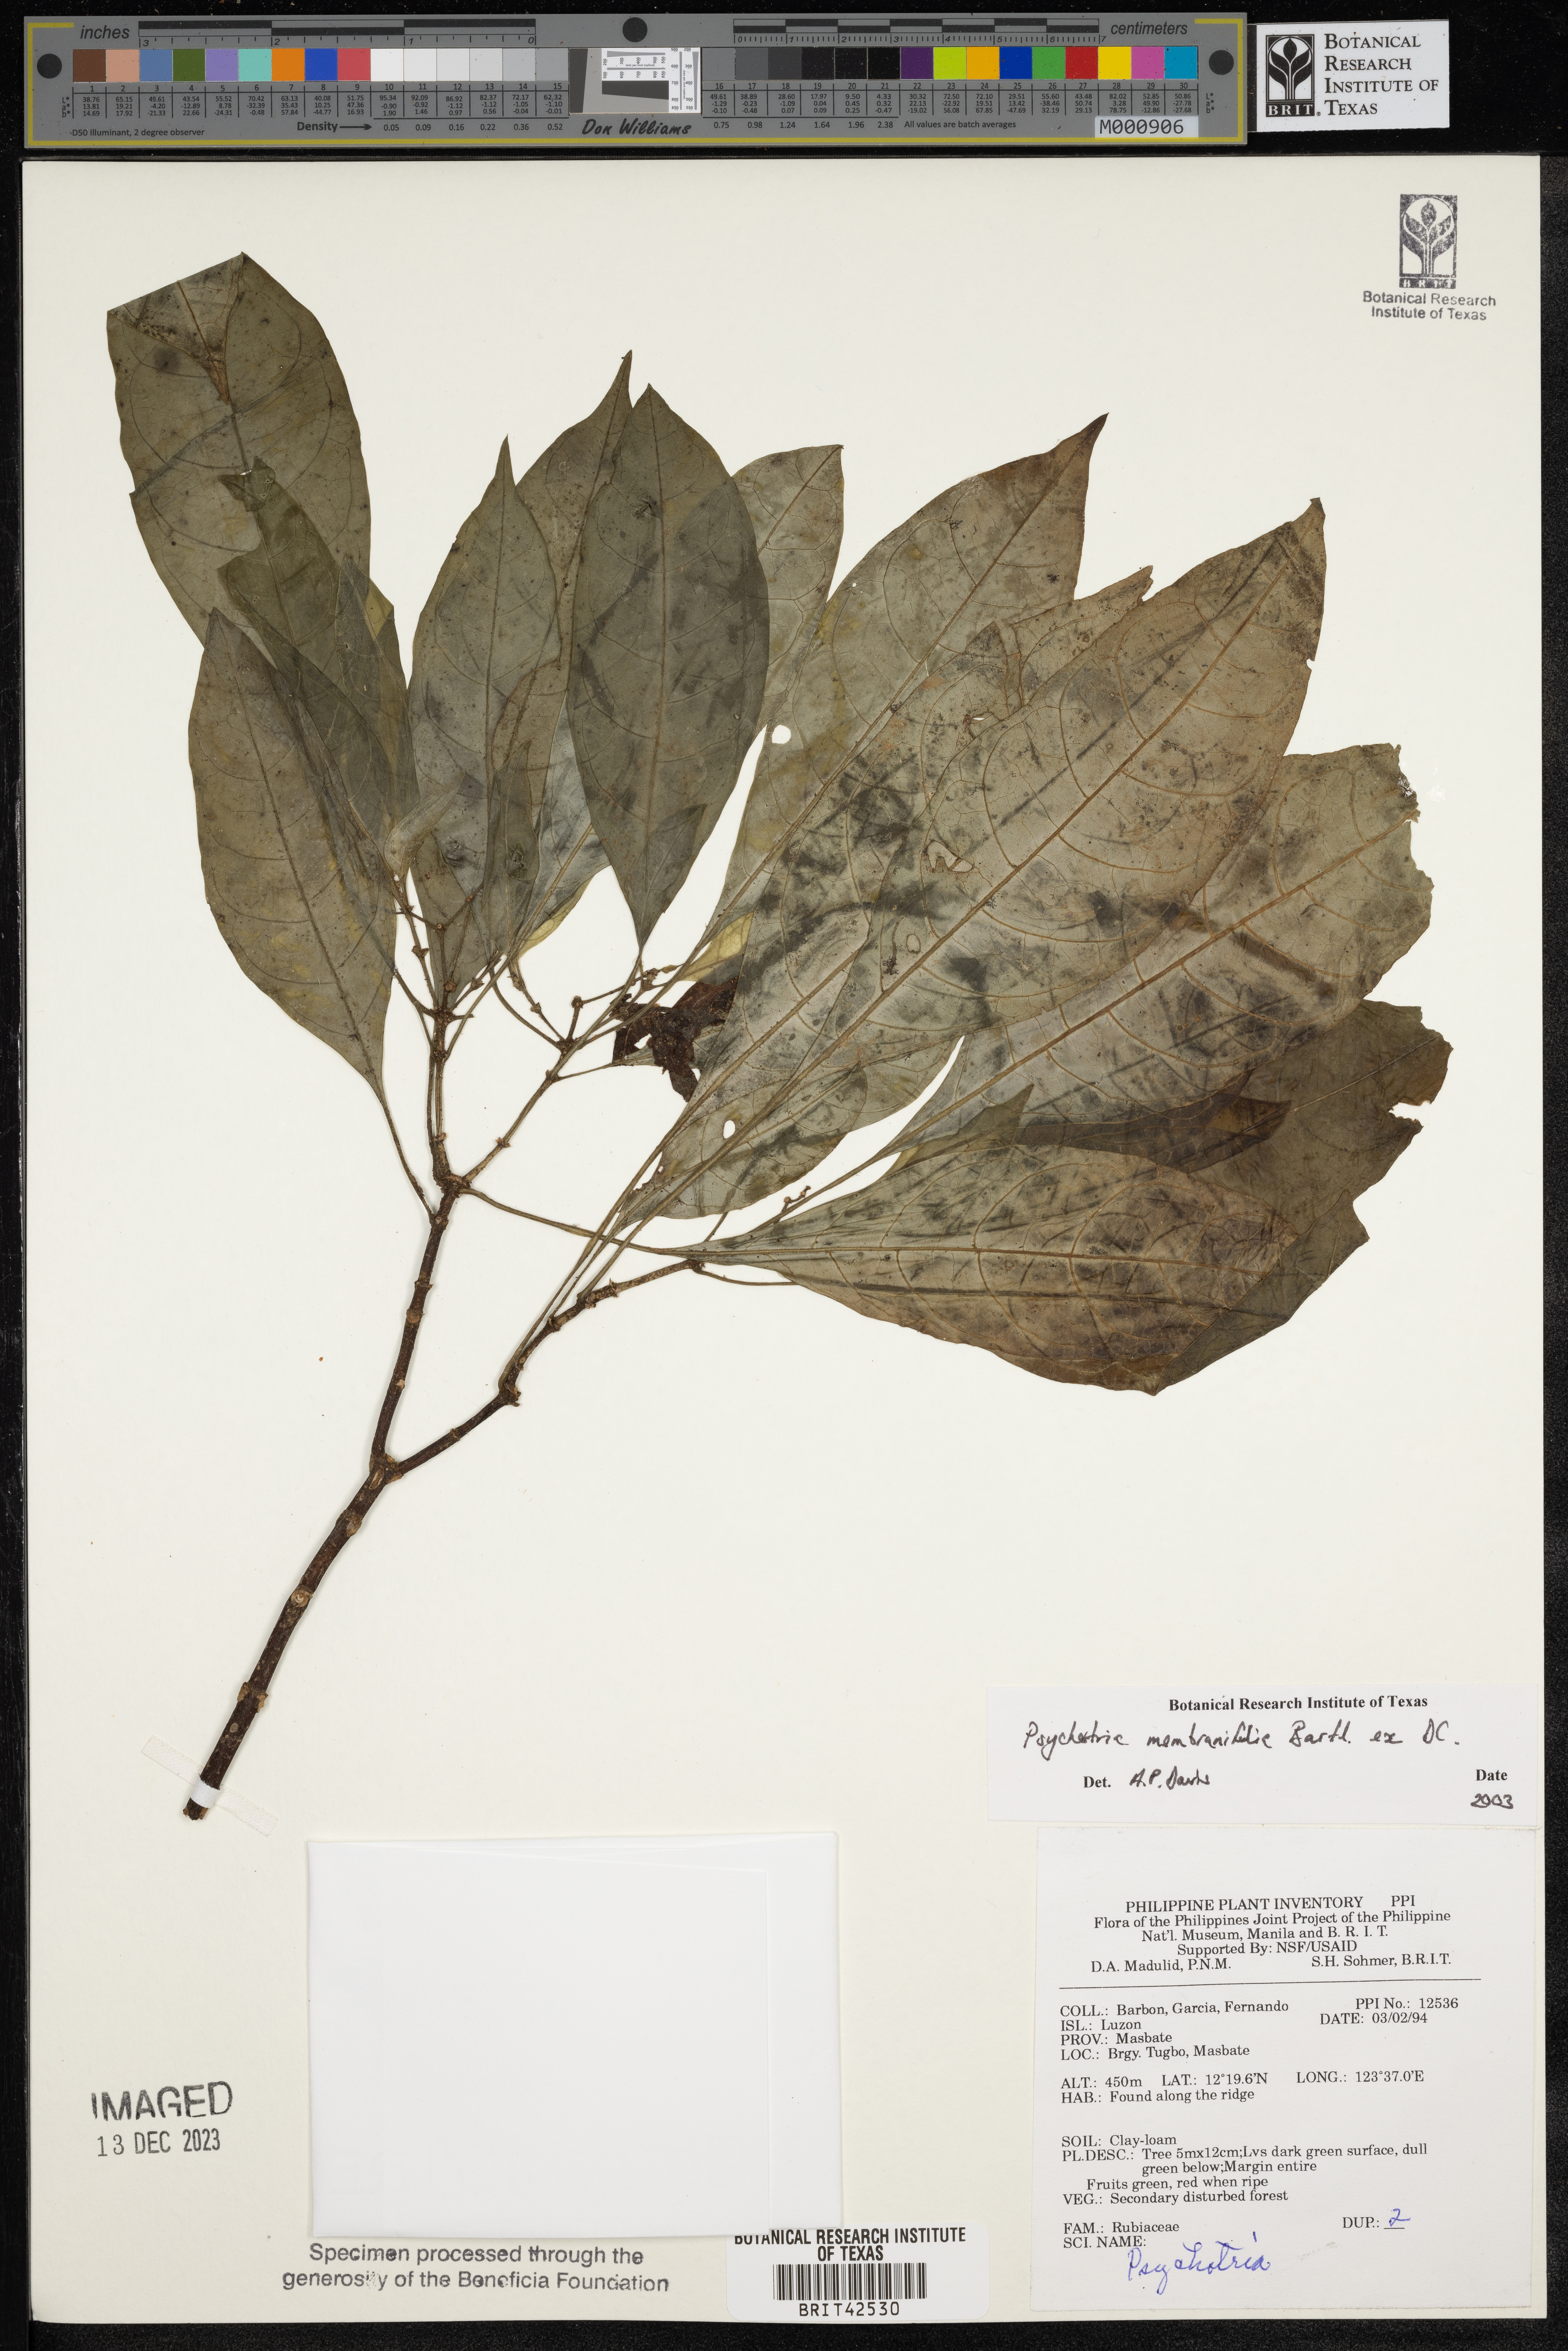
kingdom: Plantae
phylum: Tracheophyta
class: Magnoliopsida
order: Gentianales
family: Rubiaceae
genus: Eumachia
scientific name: Eumachia membranifolia
